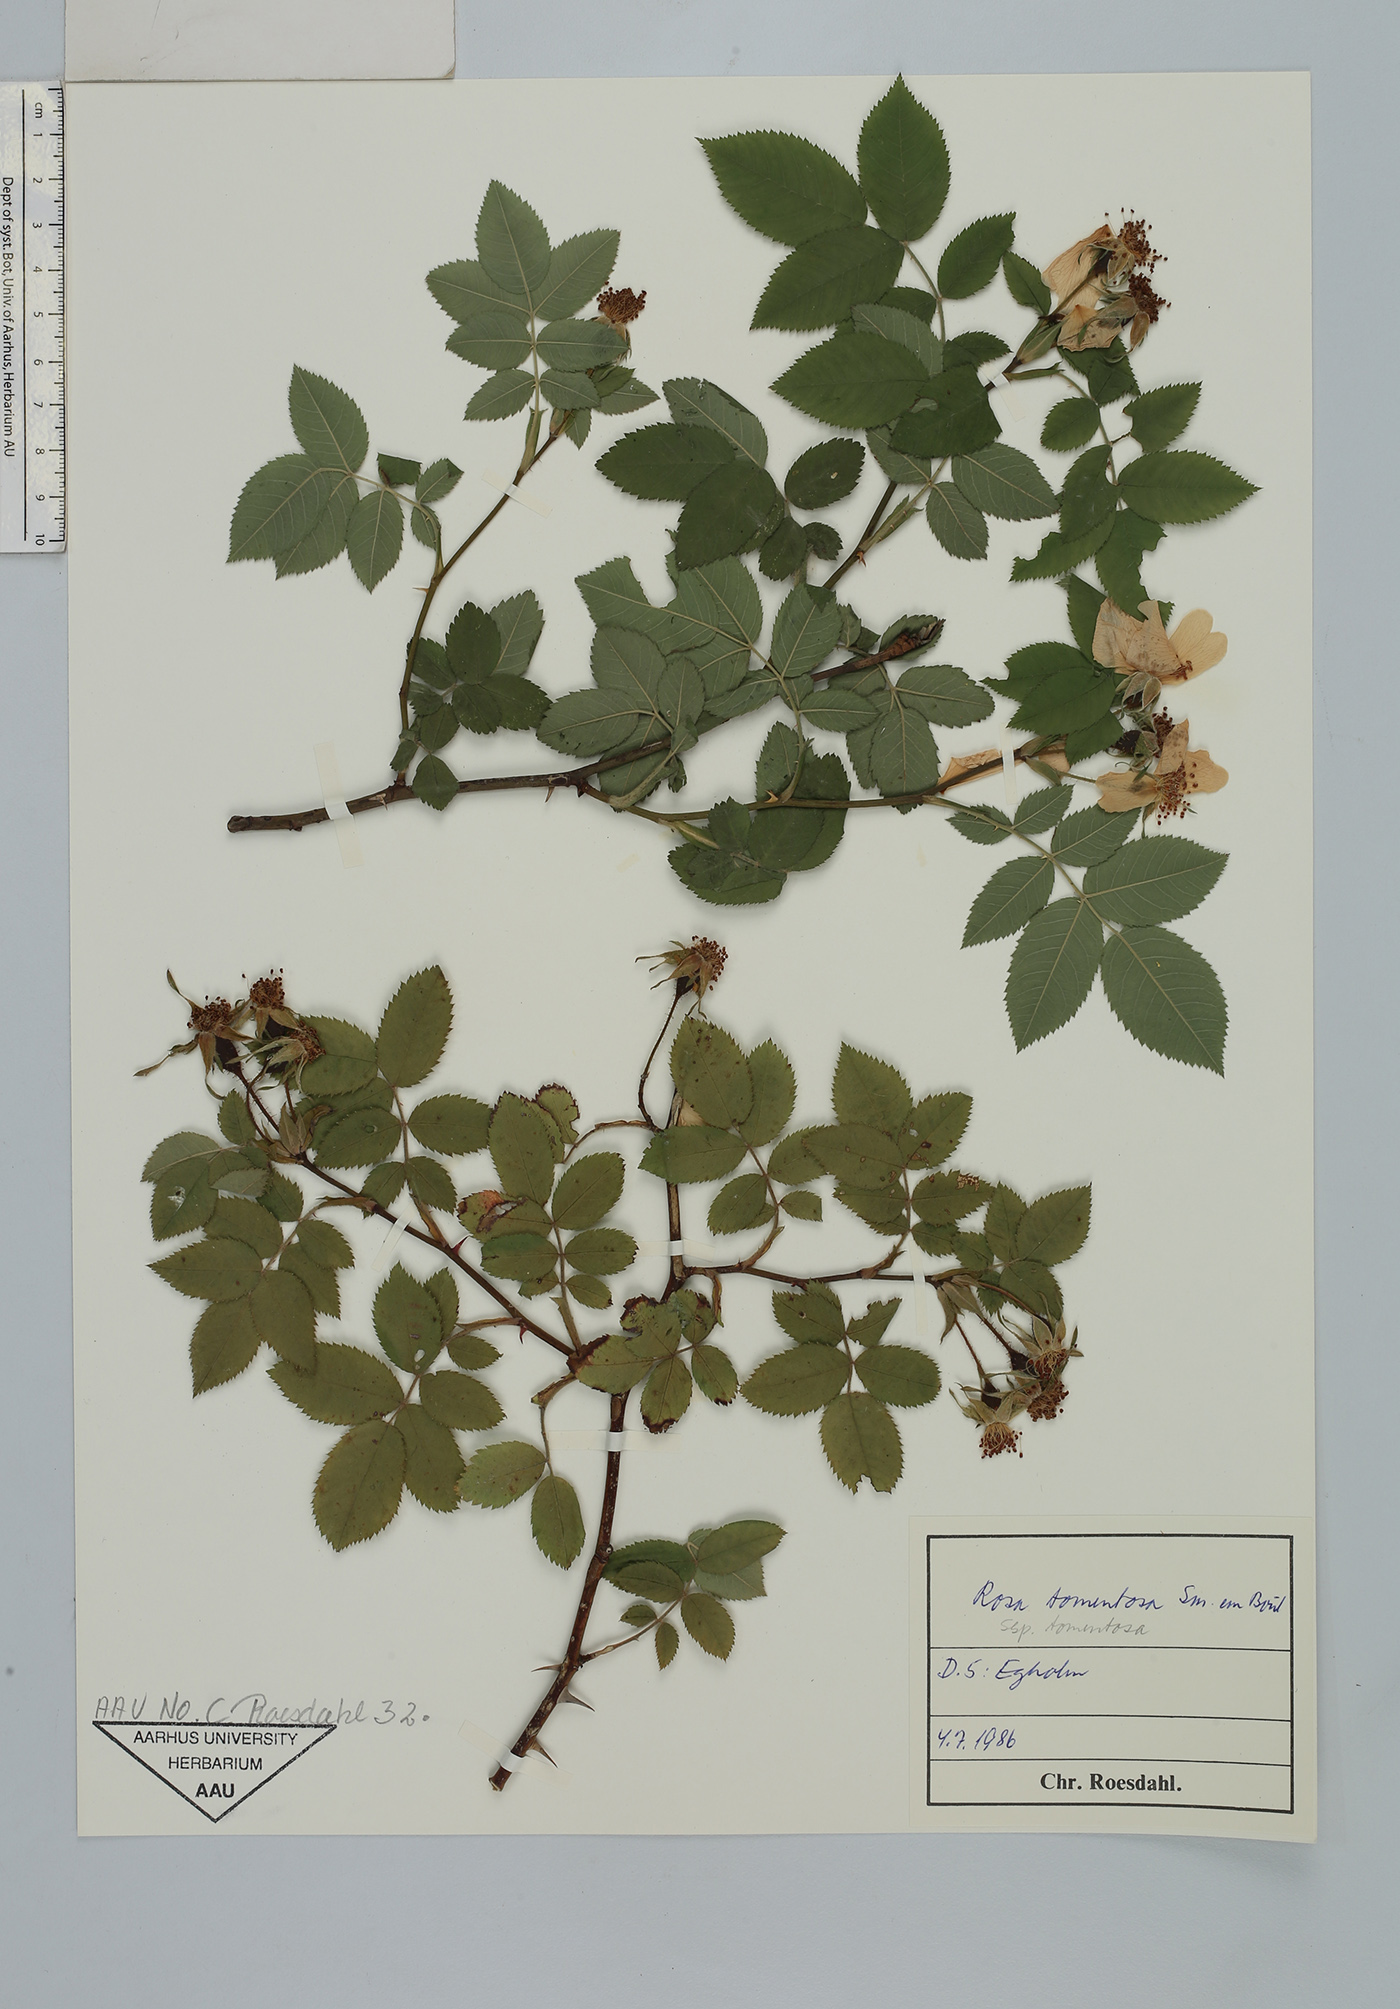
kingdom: Plantae
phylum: Tracheophyta
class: Magnoliopsida
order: Rosales
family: Rosaceae
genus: Rosa
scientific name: Rosa tomentosa
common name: Downy rose
